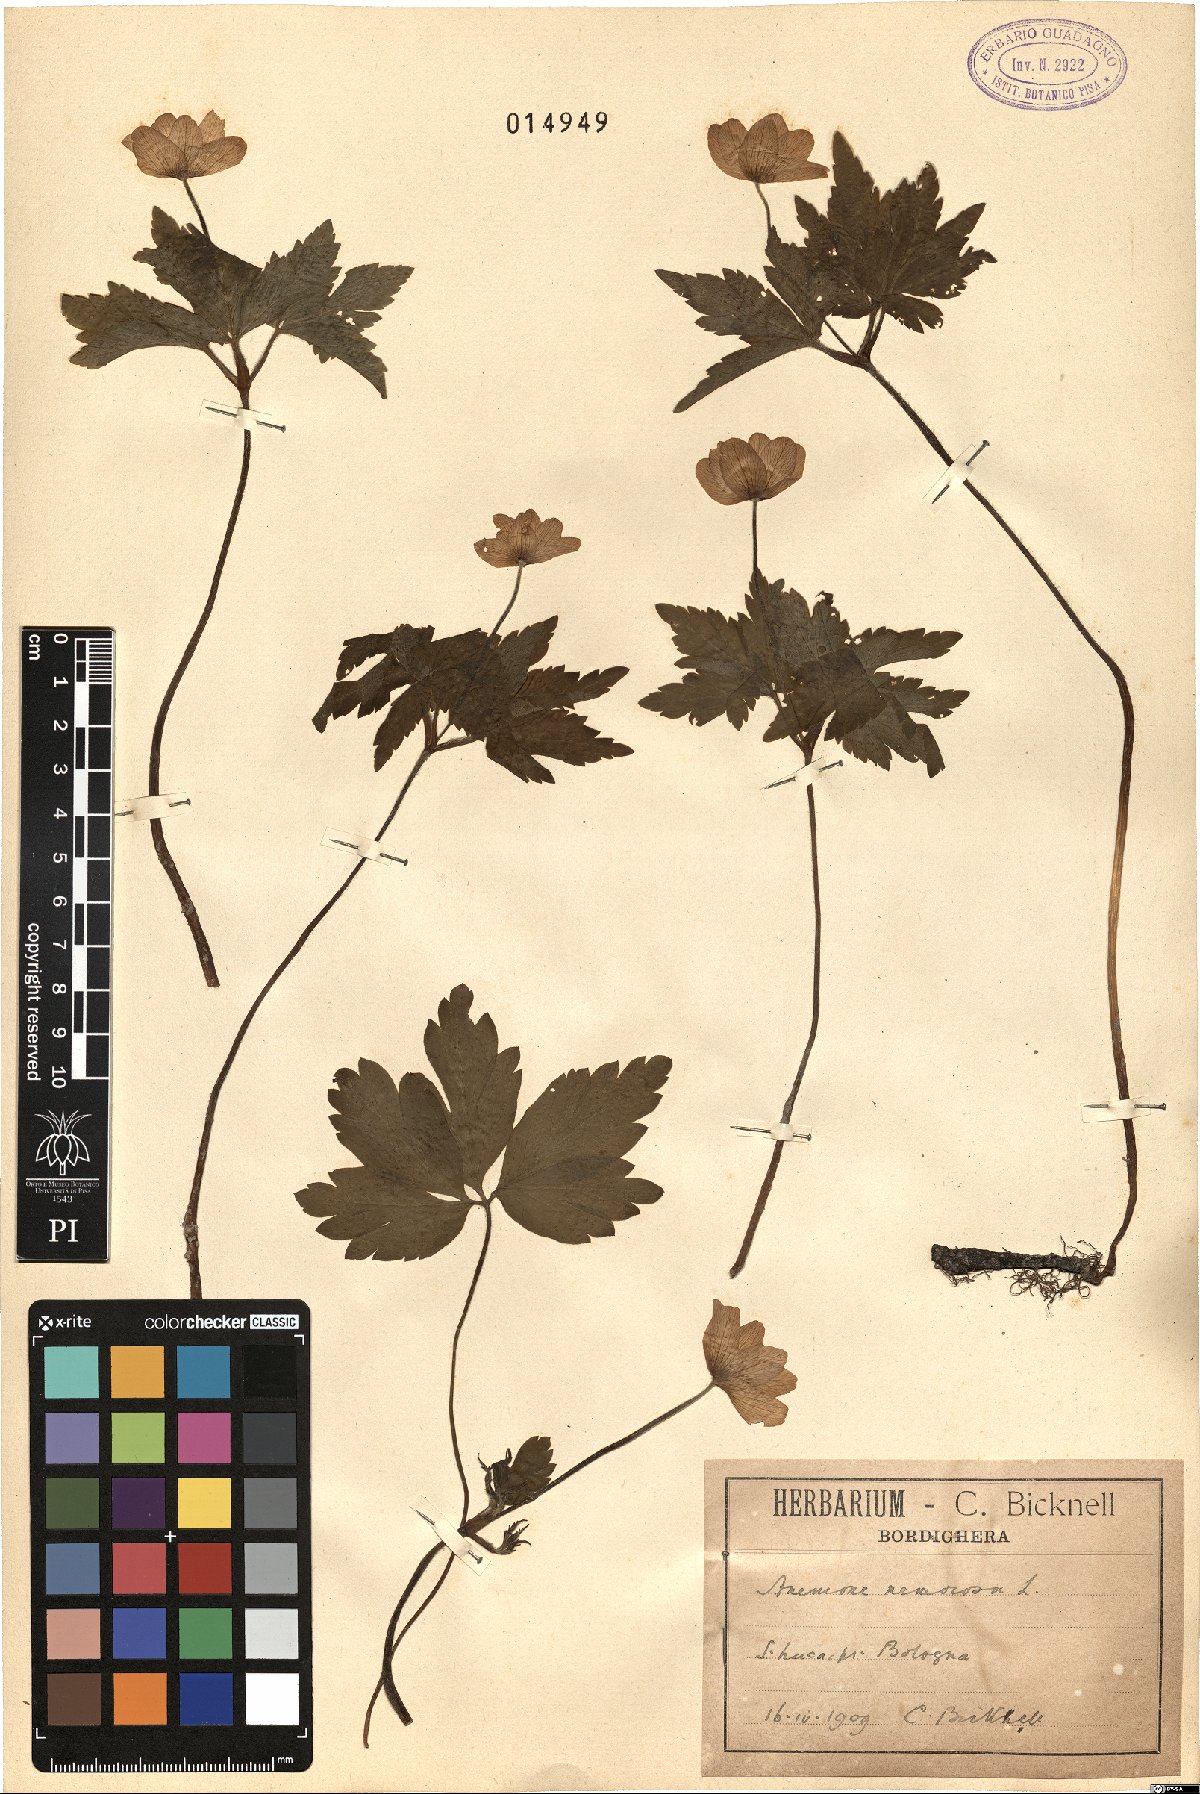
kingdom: Plantae
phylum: Tracheophyta
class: Magnoliopsida
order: Ranunculales
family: Ranunculaceae
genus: Anemone
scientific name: Anemone nemorosa
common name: Wood anemone
